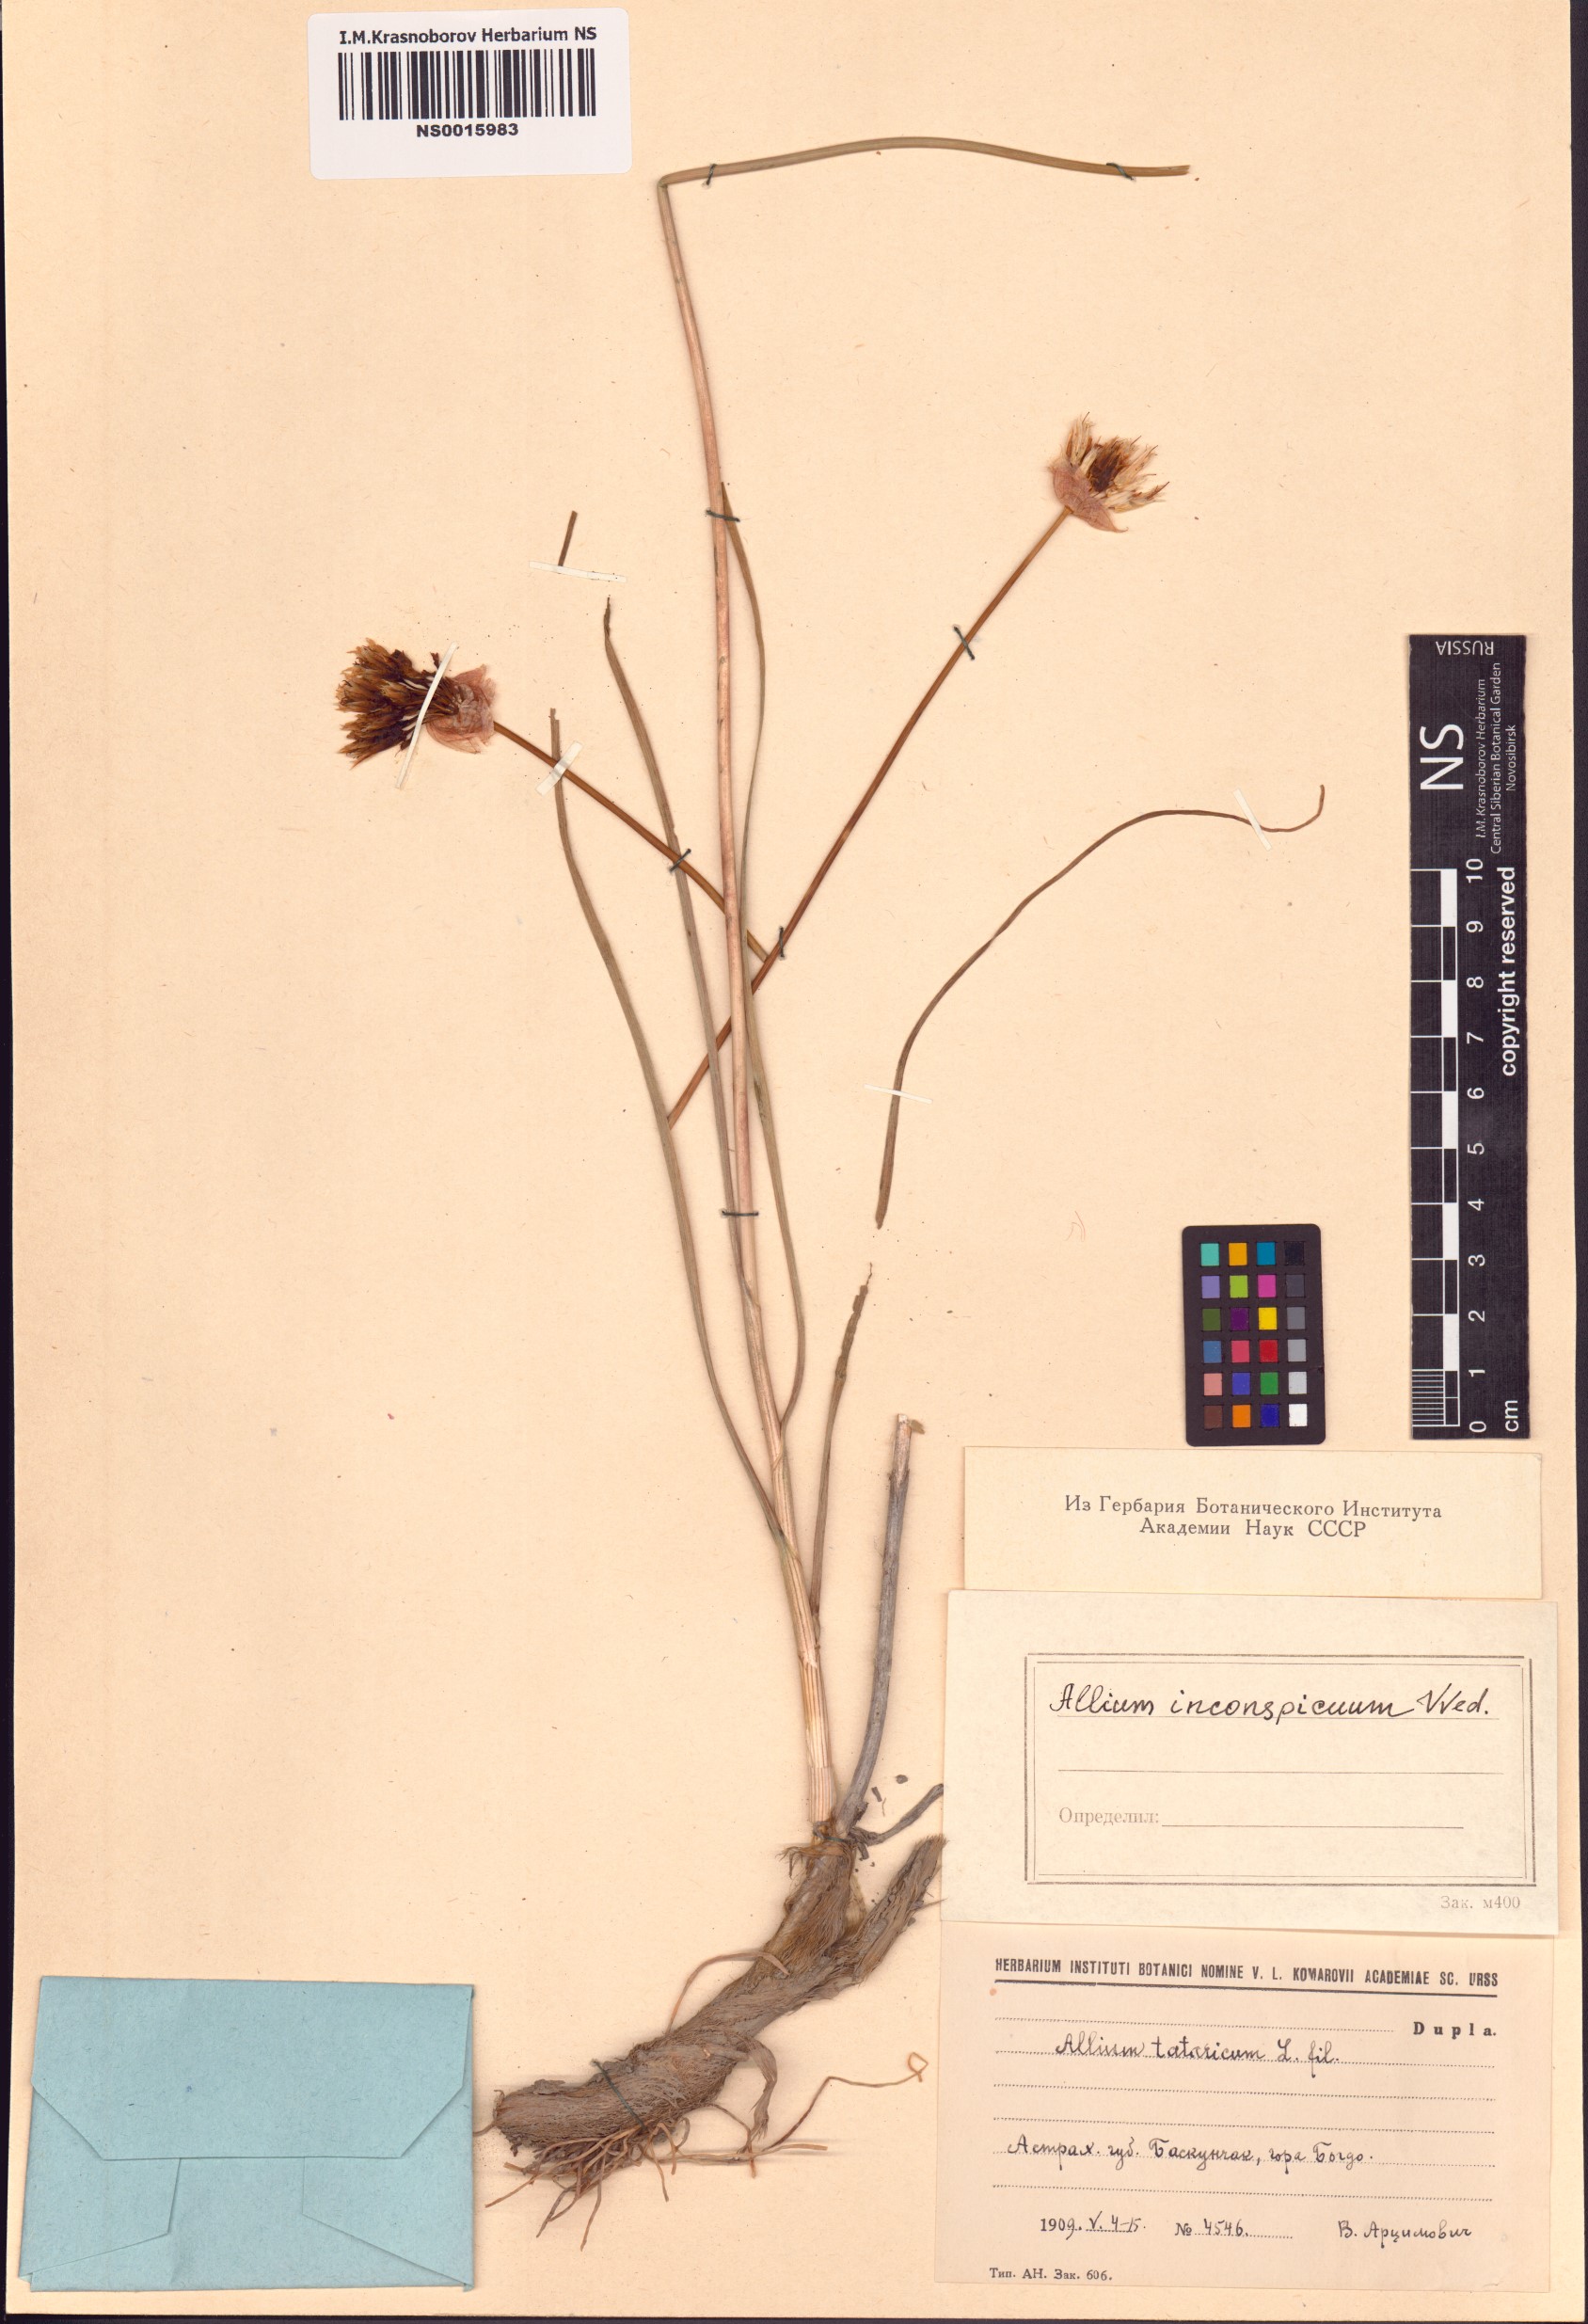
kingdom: Plantae
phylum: Tracheophyta
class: Liliopsida
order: Asparagales
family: Amaryllidaceae
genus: Allium
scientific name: Allium inconspicuum
